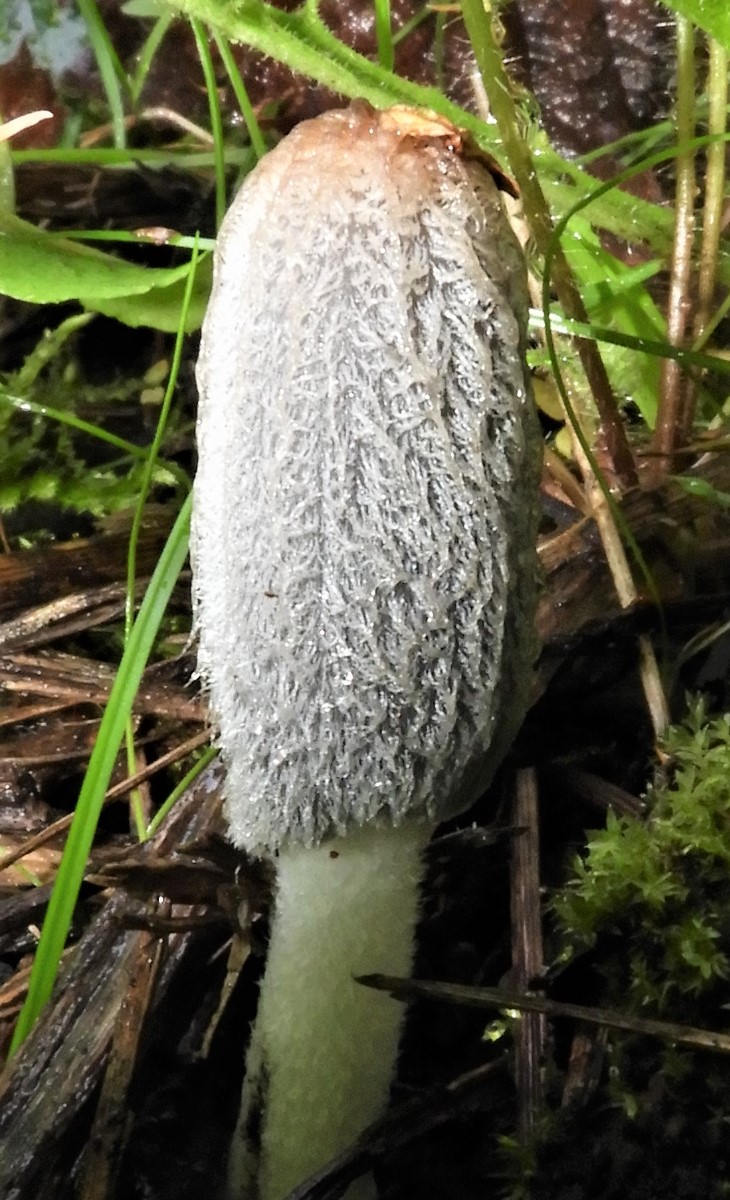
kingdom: Fungi
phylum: Basidiomycota
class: Agaricomycetes
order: Agaricales
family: Psathyrellaceae
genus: Coprinopsis
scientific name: Coprinopsis lagopus
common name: dunstokket blækhat
